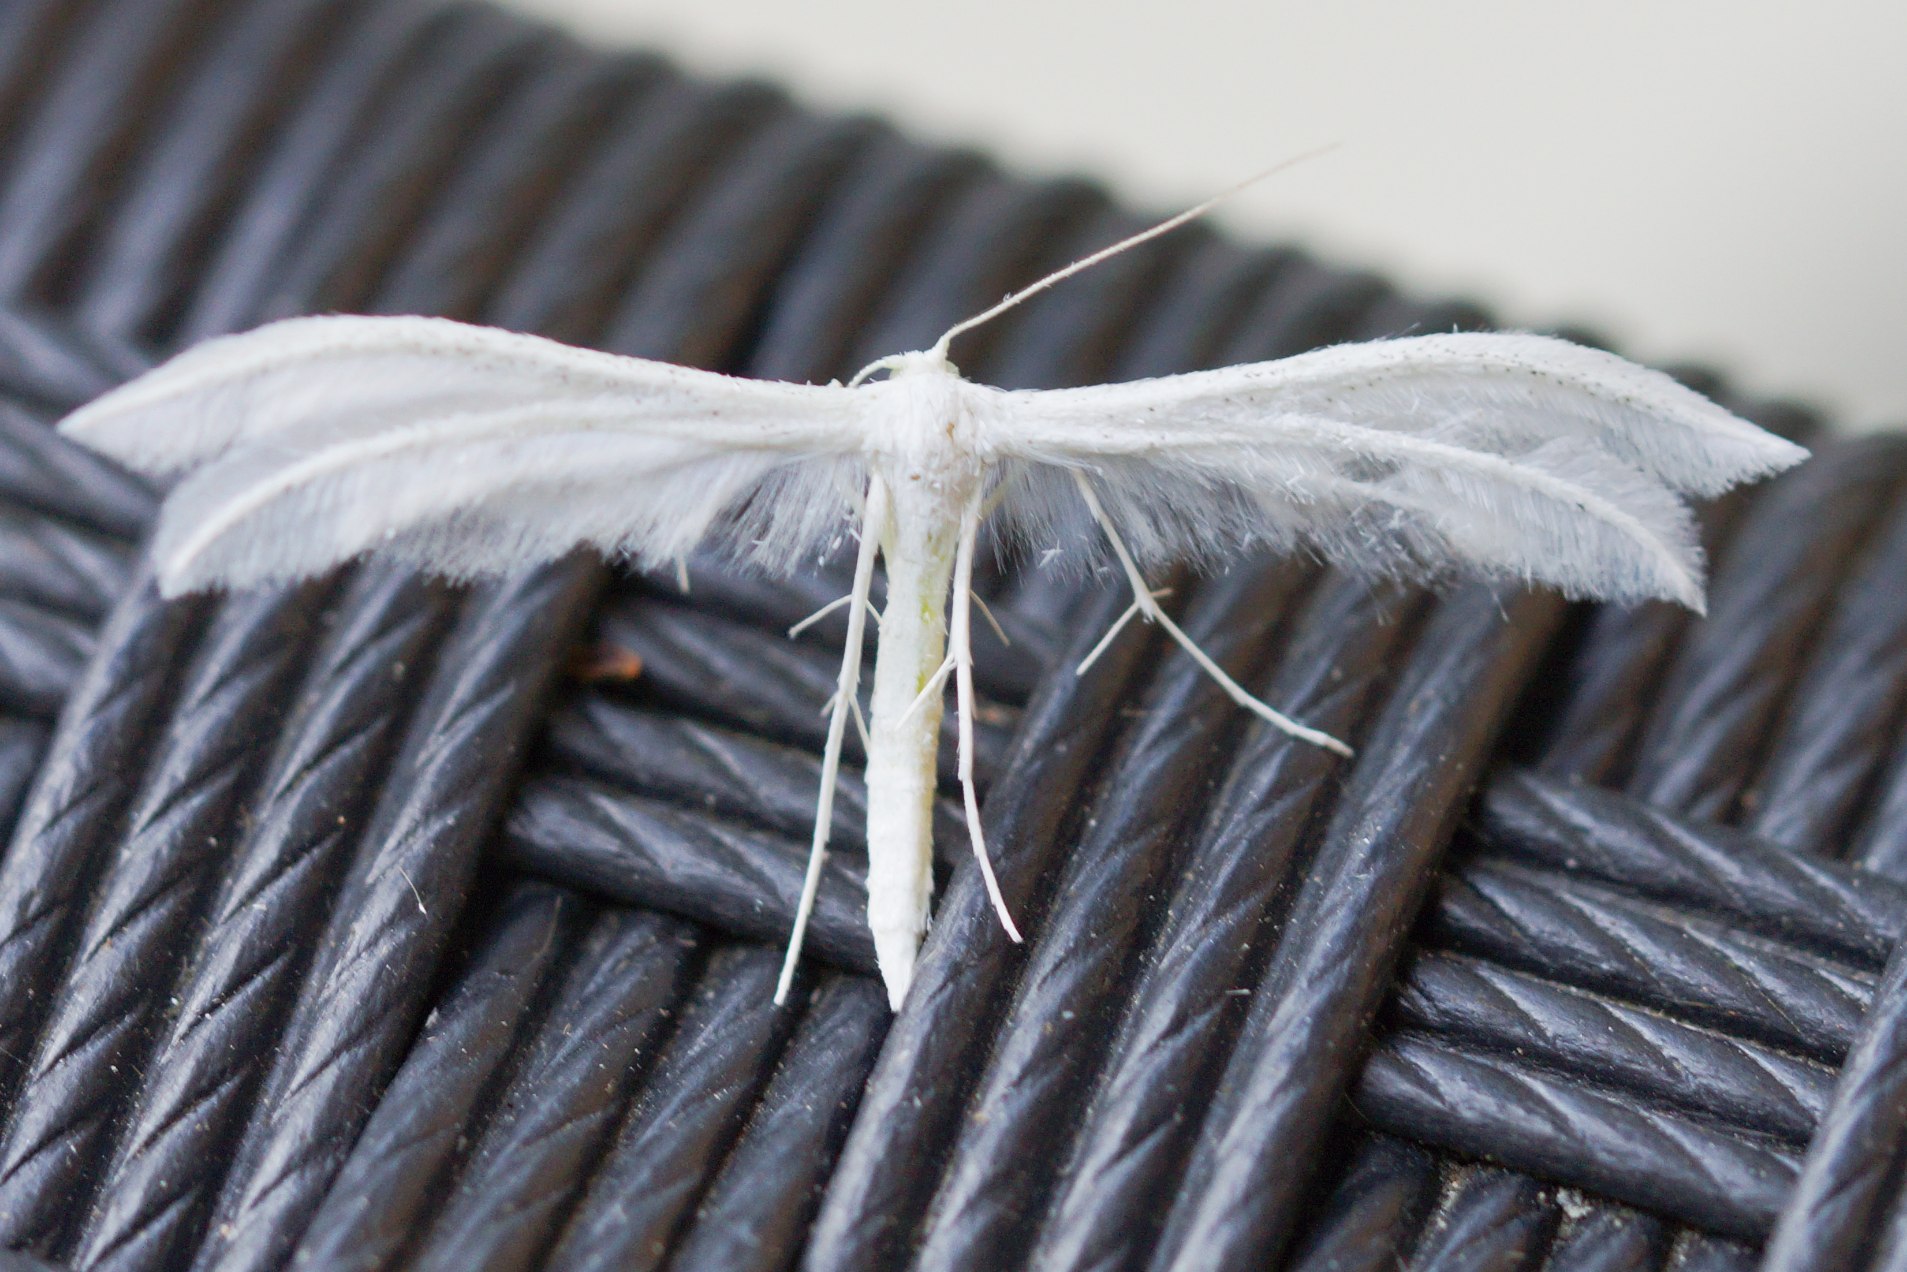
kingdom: Animalia
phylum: Arthropoda
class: Insecta
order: Lepidoptera
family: Pterophoridae
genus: Pterophorus
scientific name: Pterophorus pentadactyla
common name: Hvidt fjermøl
